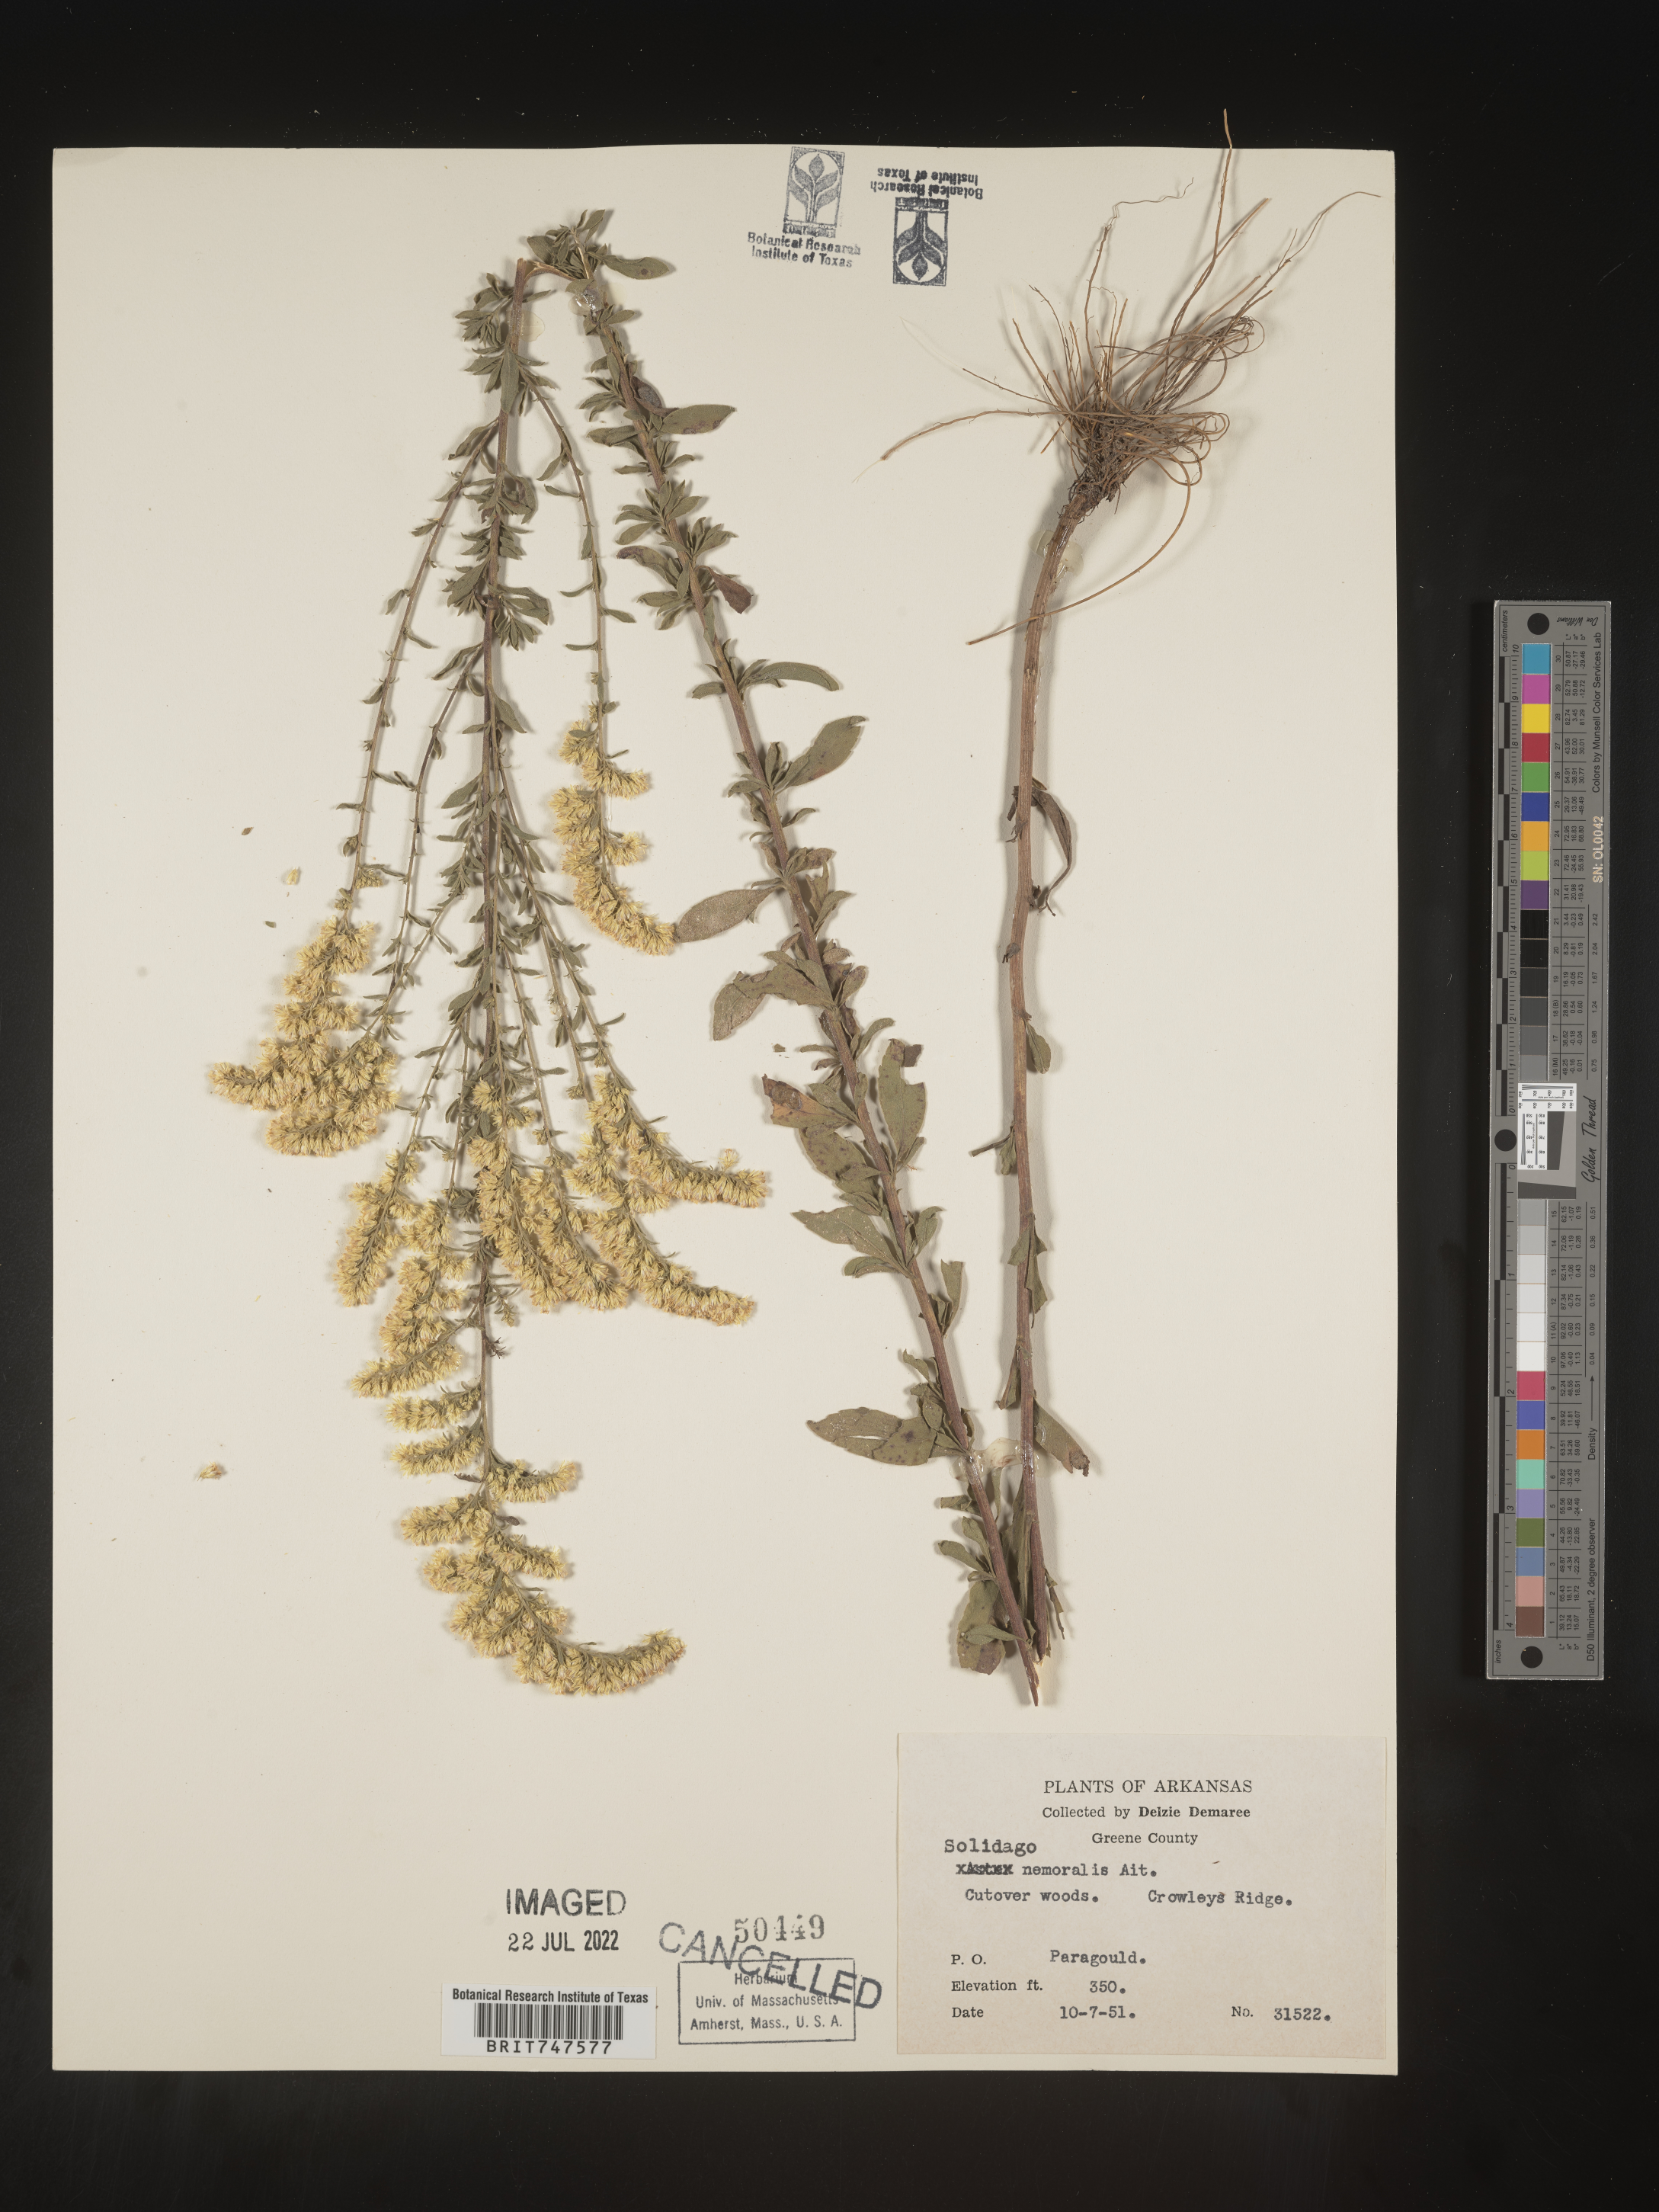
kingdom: Plantae
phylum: Tracheophyta
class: Magnoliopsida
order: Asterales
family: Asteraceae
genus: Solidago
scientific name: Solidago nemoralis
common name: Grey goldenrod
